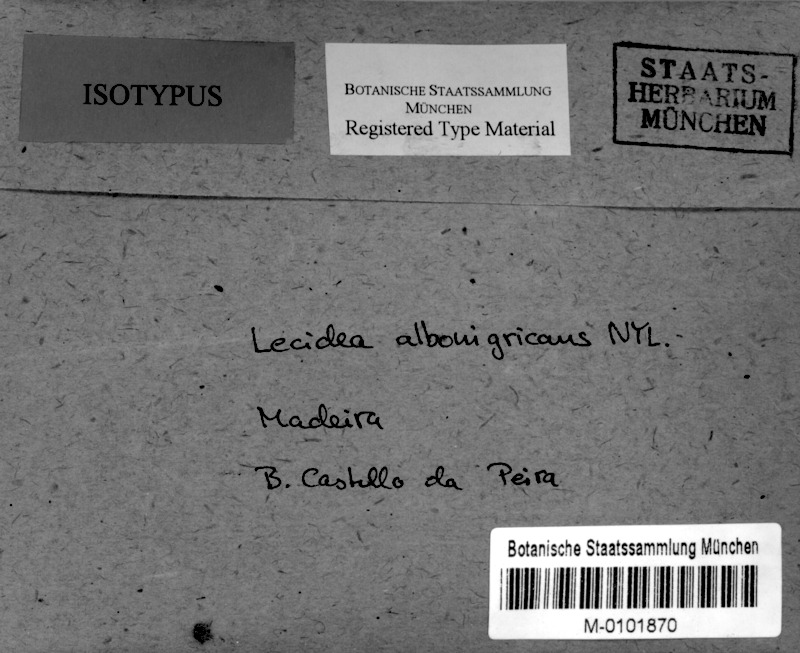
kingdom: Fungi
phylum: Ascomycota
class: Arthoniomycetes
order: Arthoniales
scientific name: Arthoniales
